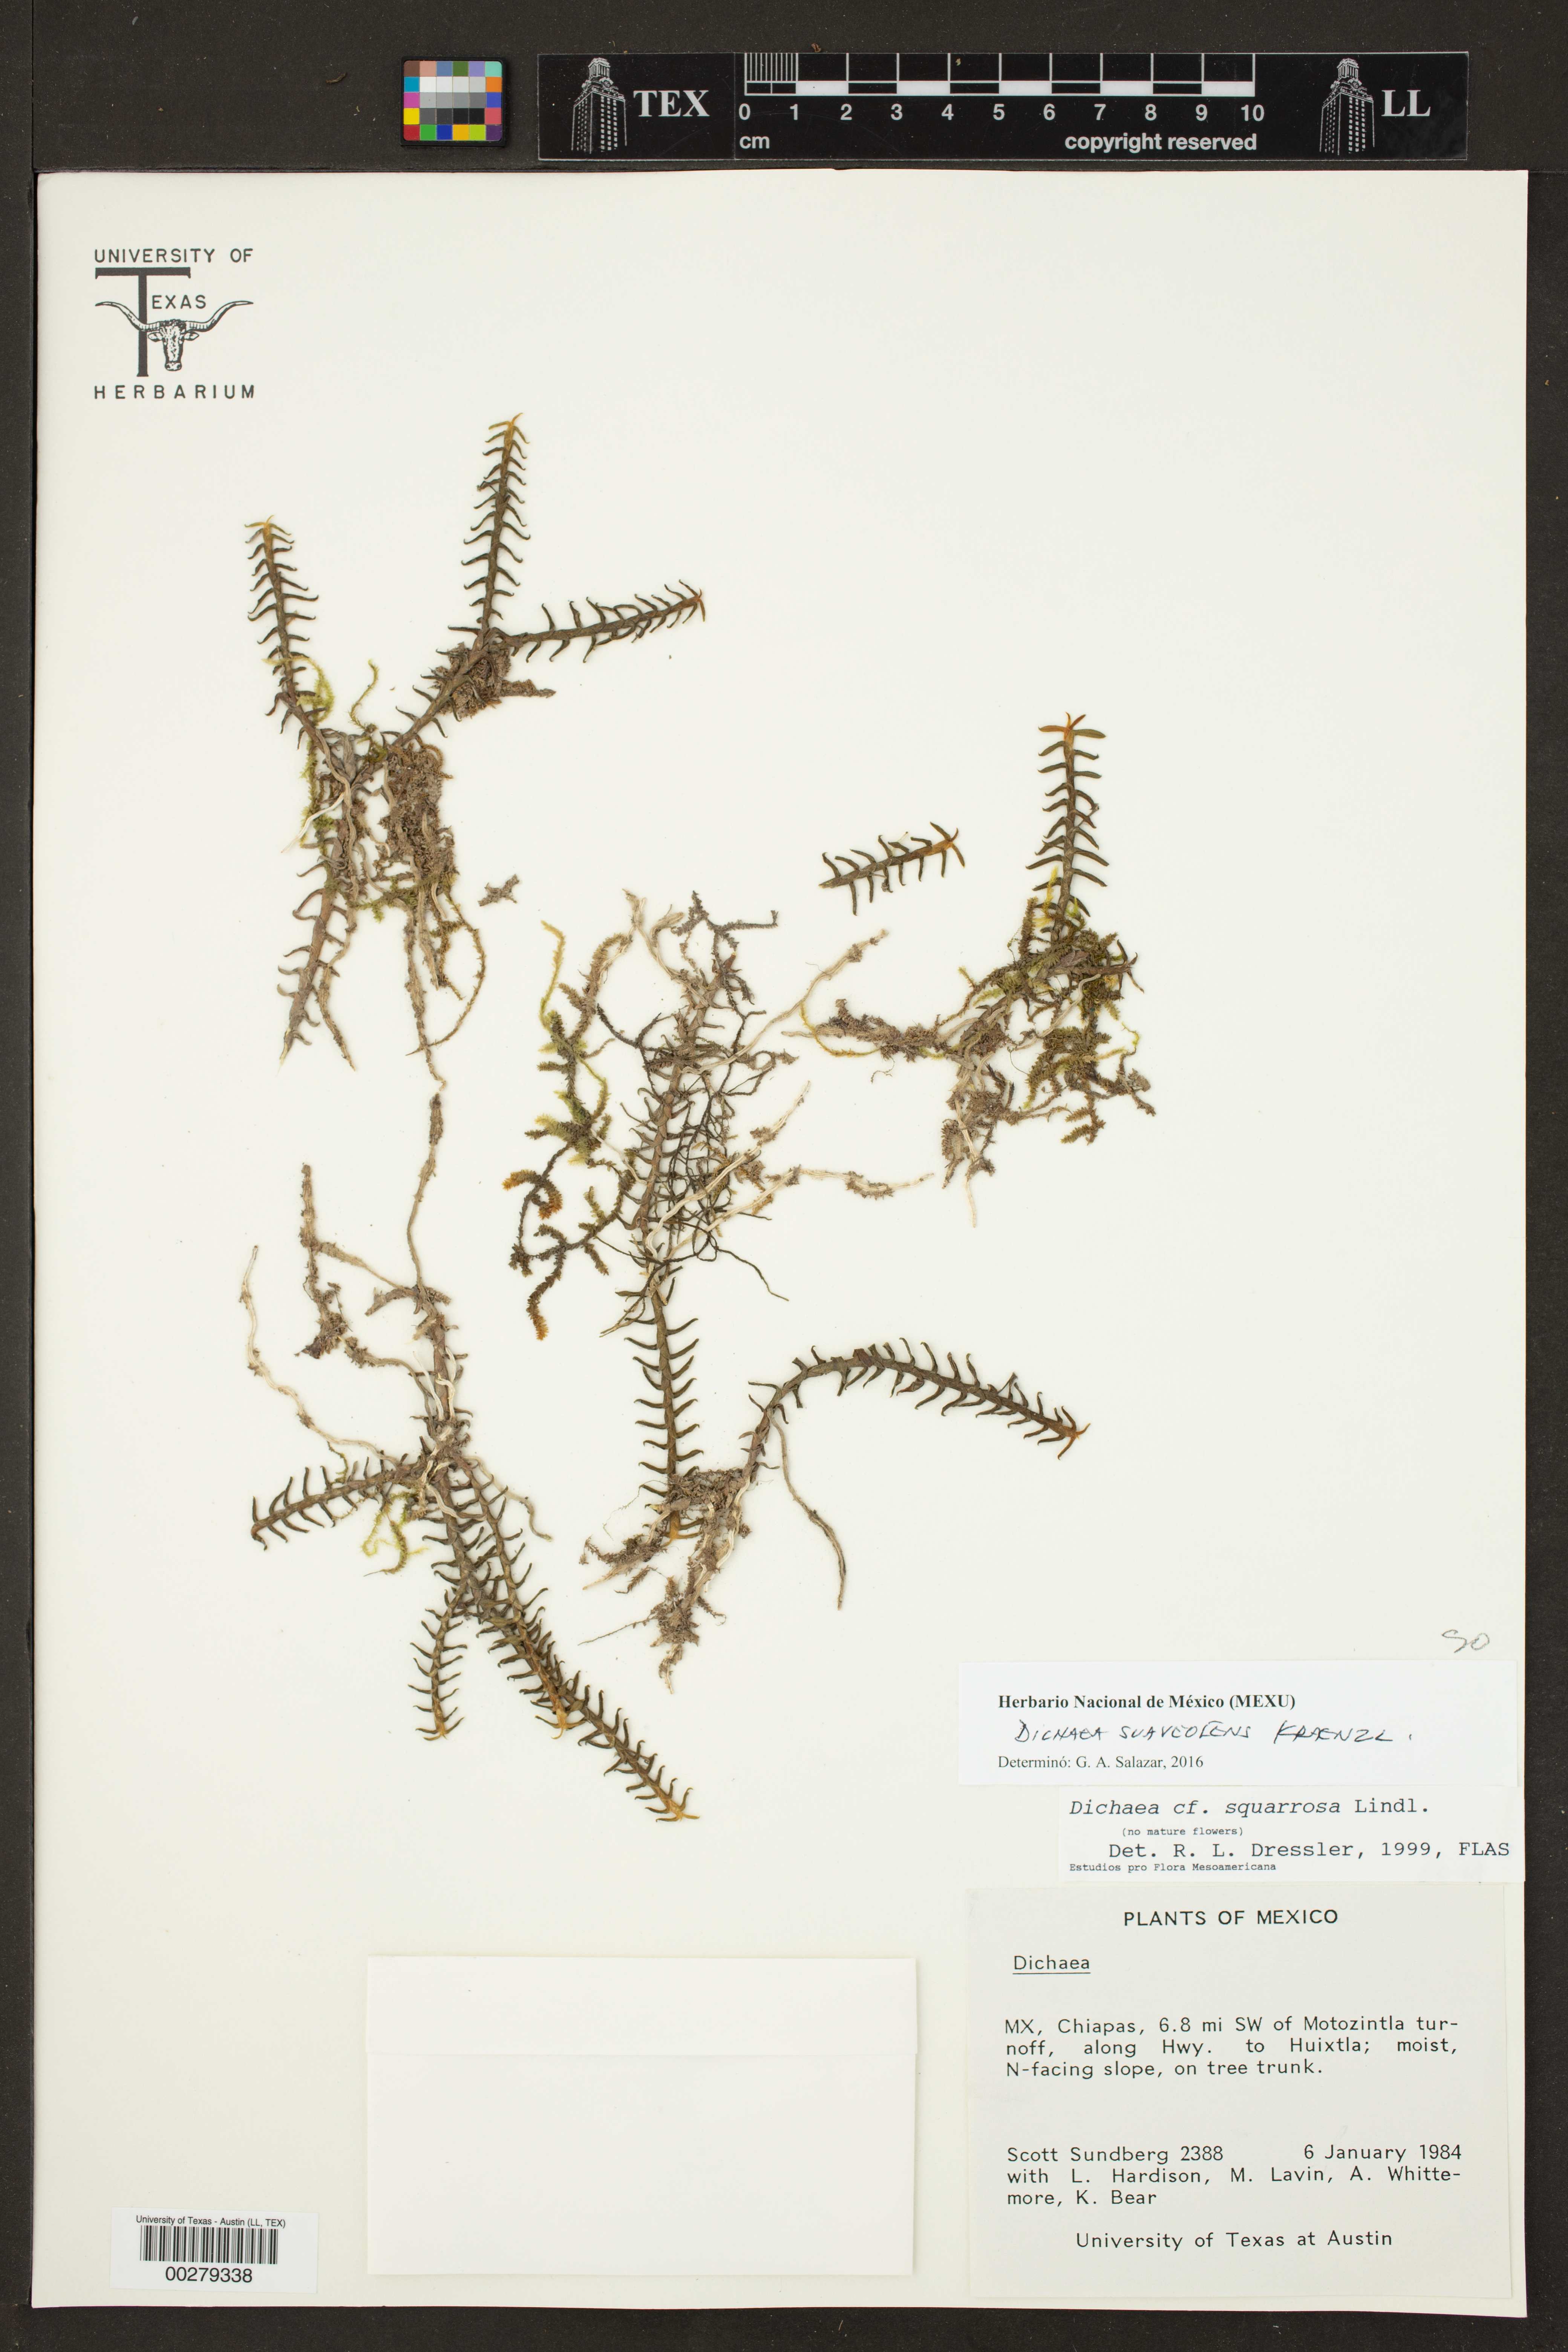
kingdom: Plantae
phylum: Tracheophyta
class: Liliopsida
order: Asparagales
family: Orchidaceae
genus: Dichaea
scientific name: Dichaea squarrosa
